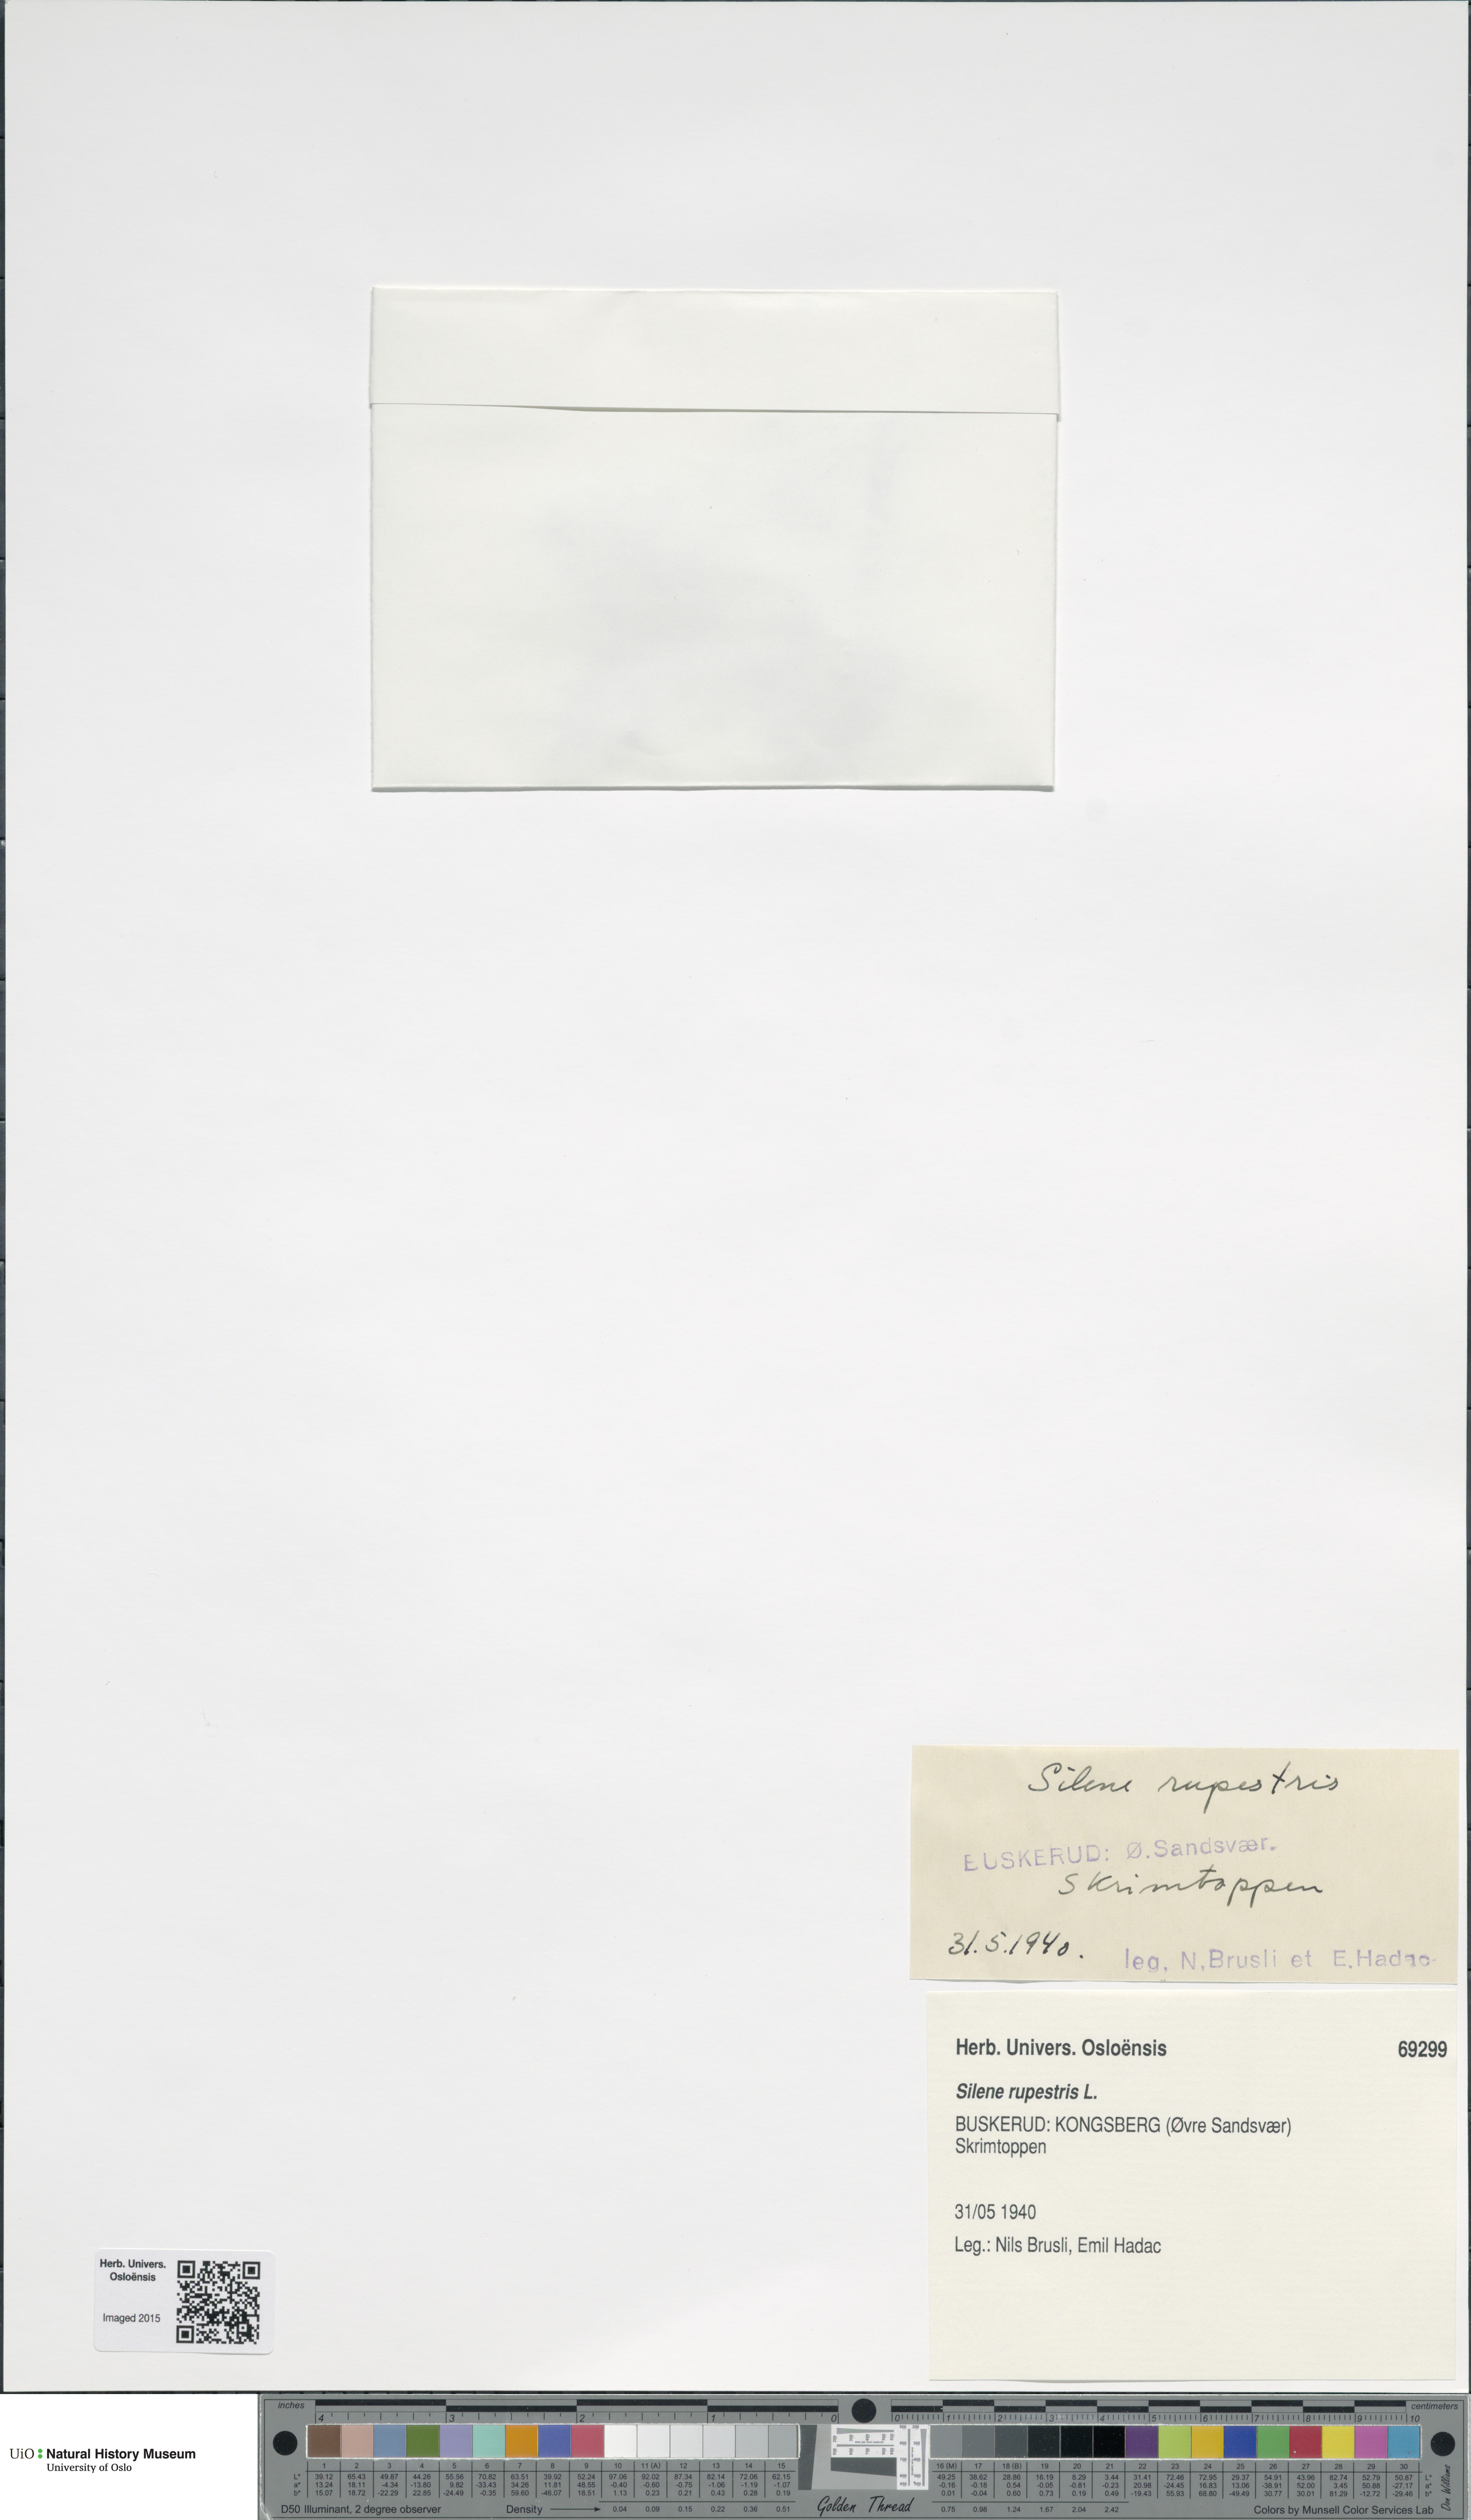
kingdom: Plantae
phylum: Tracheophyta
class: Magnoliopsida
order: Caryophyllales
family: Caryophyllaceae
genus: Atocion
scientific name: Atocion rupestre
